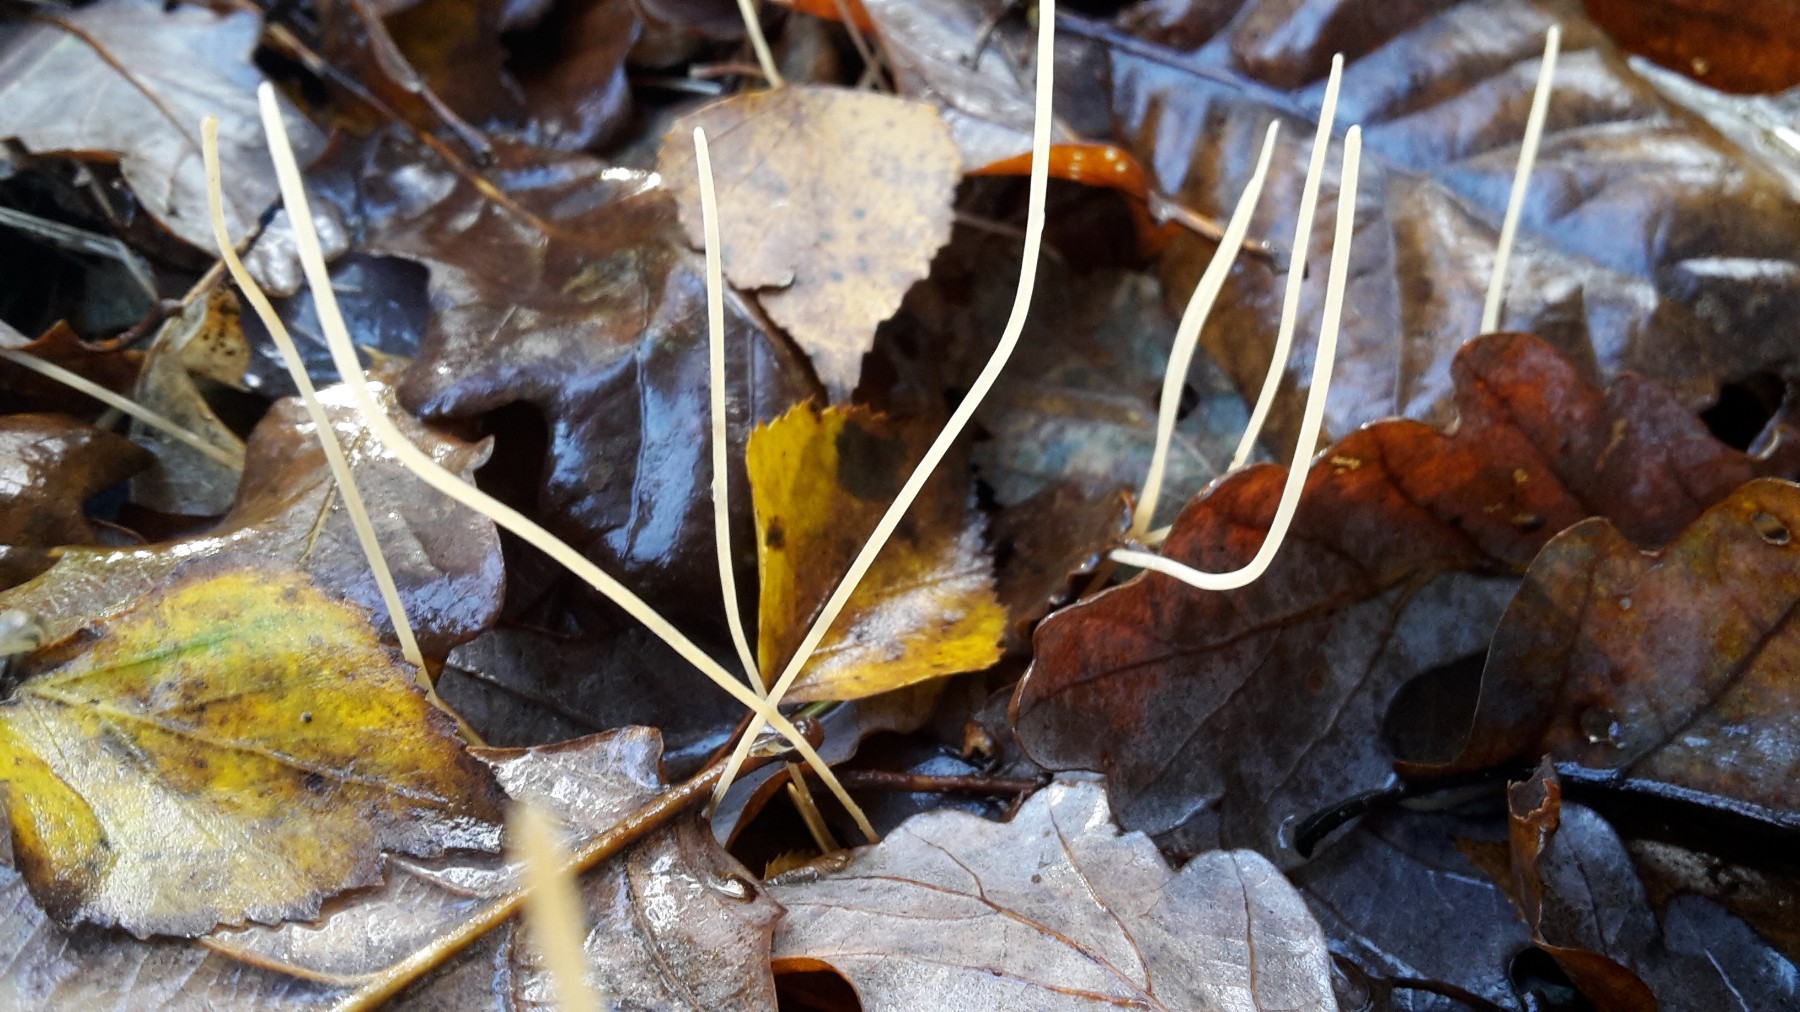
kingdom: Fungi
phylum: Basidiomycota
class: Agaricomycetes
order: Agaricales
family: Typhulaceae
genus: Typhula
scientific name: Typhula juncea
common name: trådagtig rørkølle
